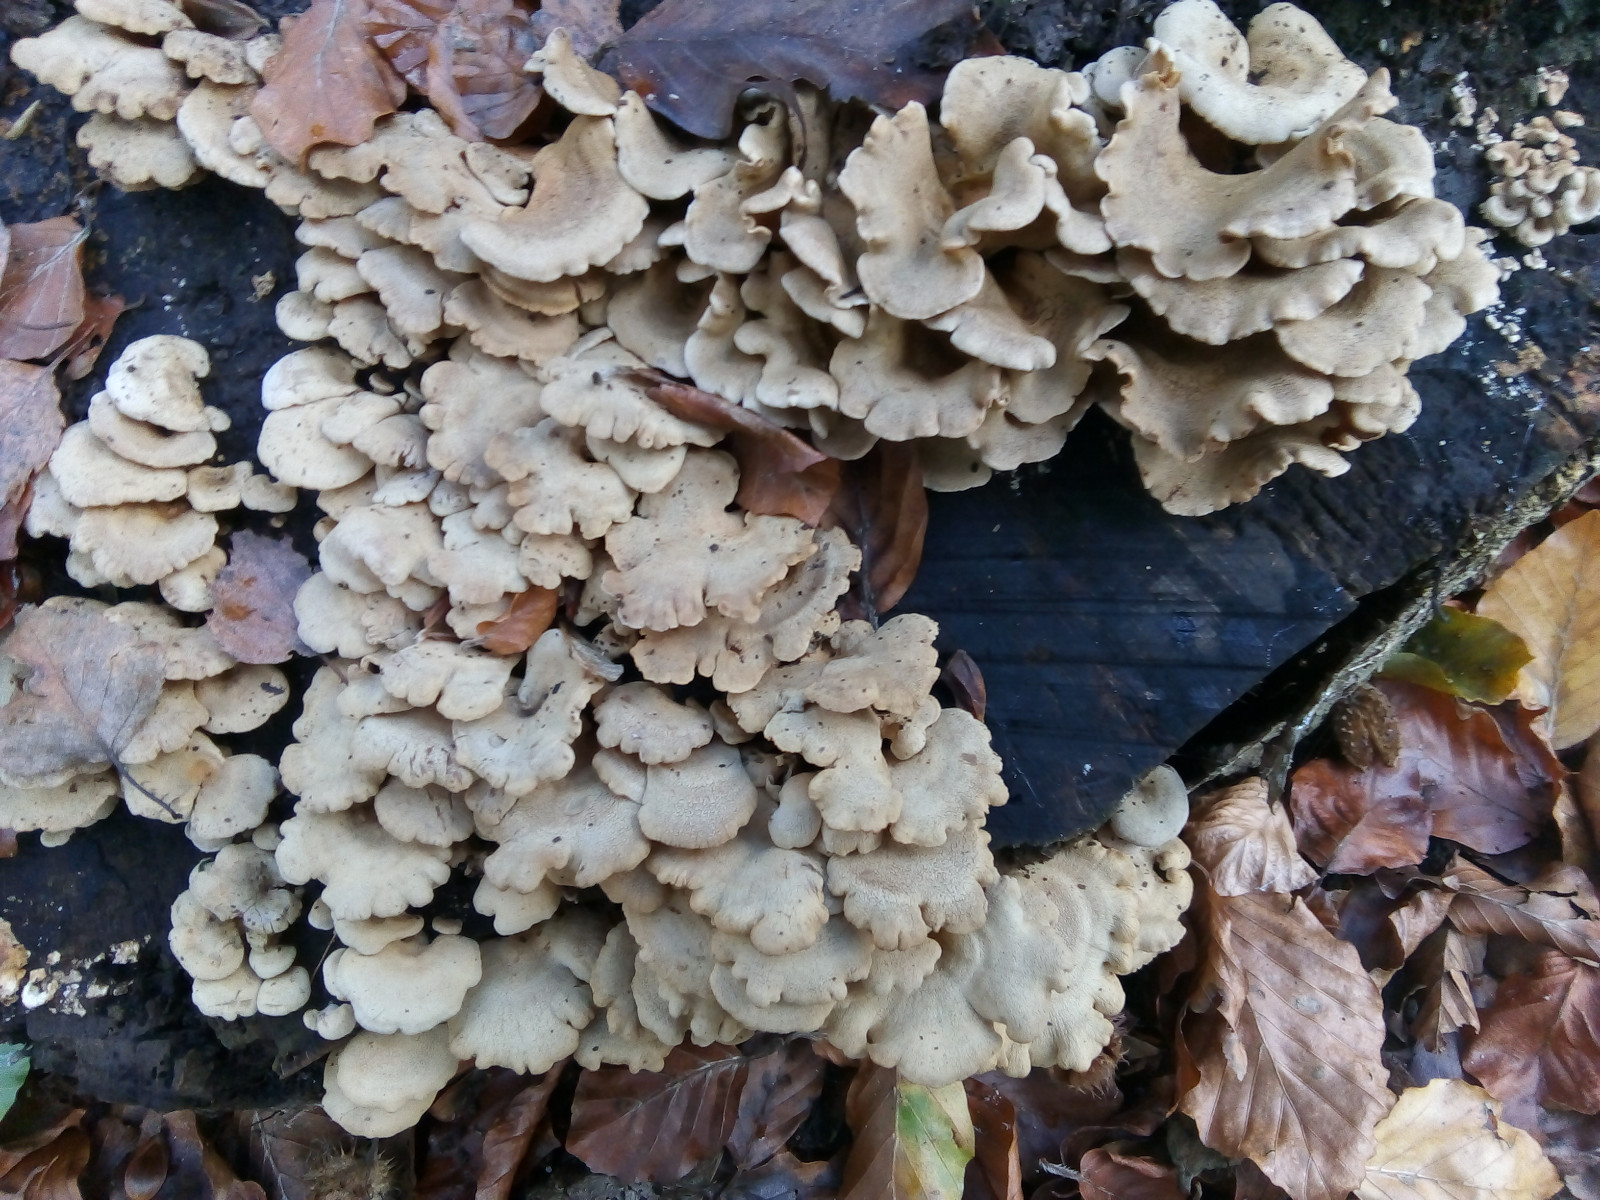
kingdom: Fungi
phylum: Basidiomycota
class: Agaricomycetes
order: Agaricales
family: Mycenaceae
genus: Panellus
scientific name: Panellus stipticus
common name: kliddet epaulethat
